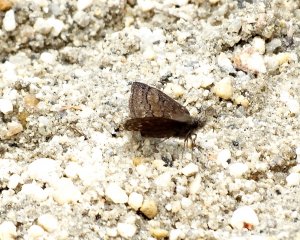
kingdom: Animalia
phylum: Arthropoda
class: Insecta
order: Lepidoptera
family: Hesperiidae
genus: Erynnis
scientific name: Erynnis brizo
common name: Sleepy Duskywing
